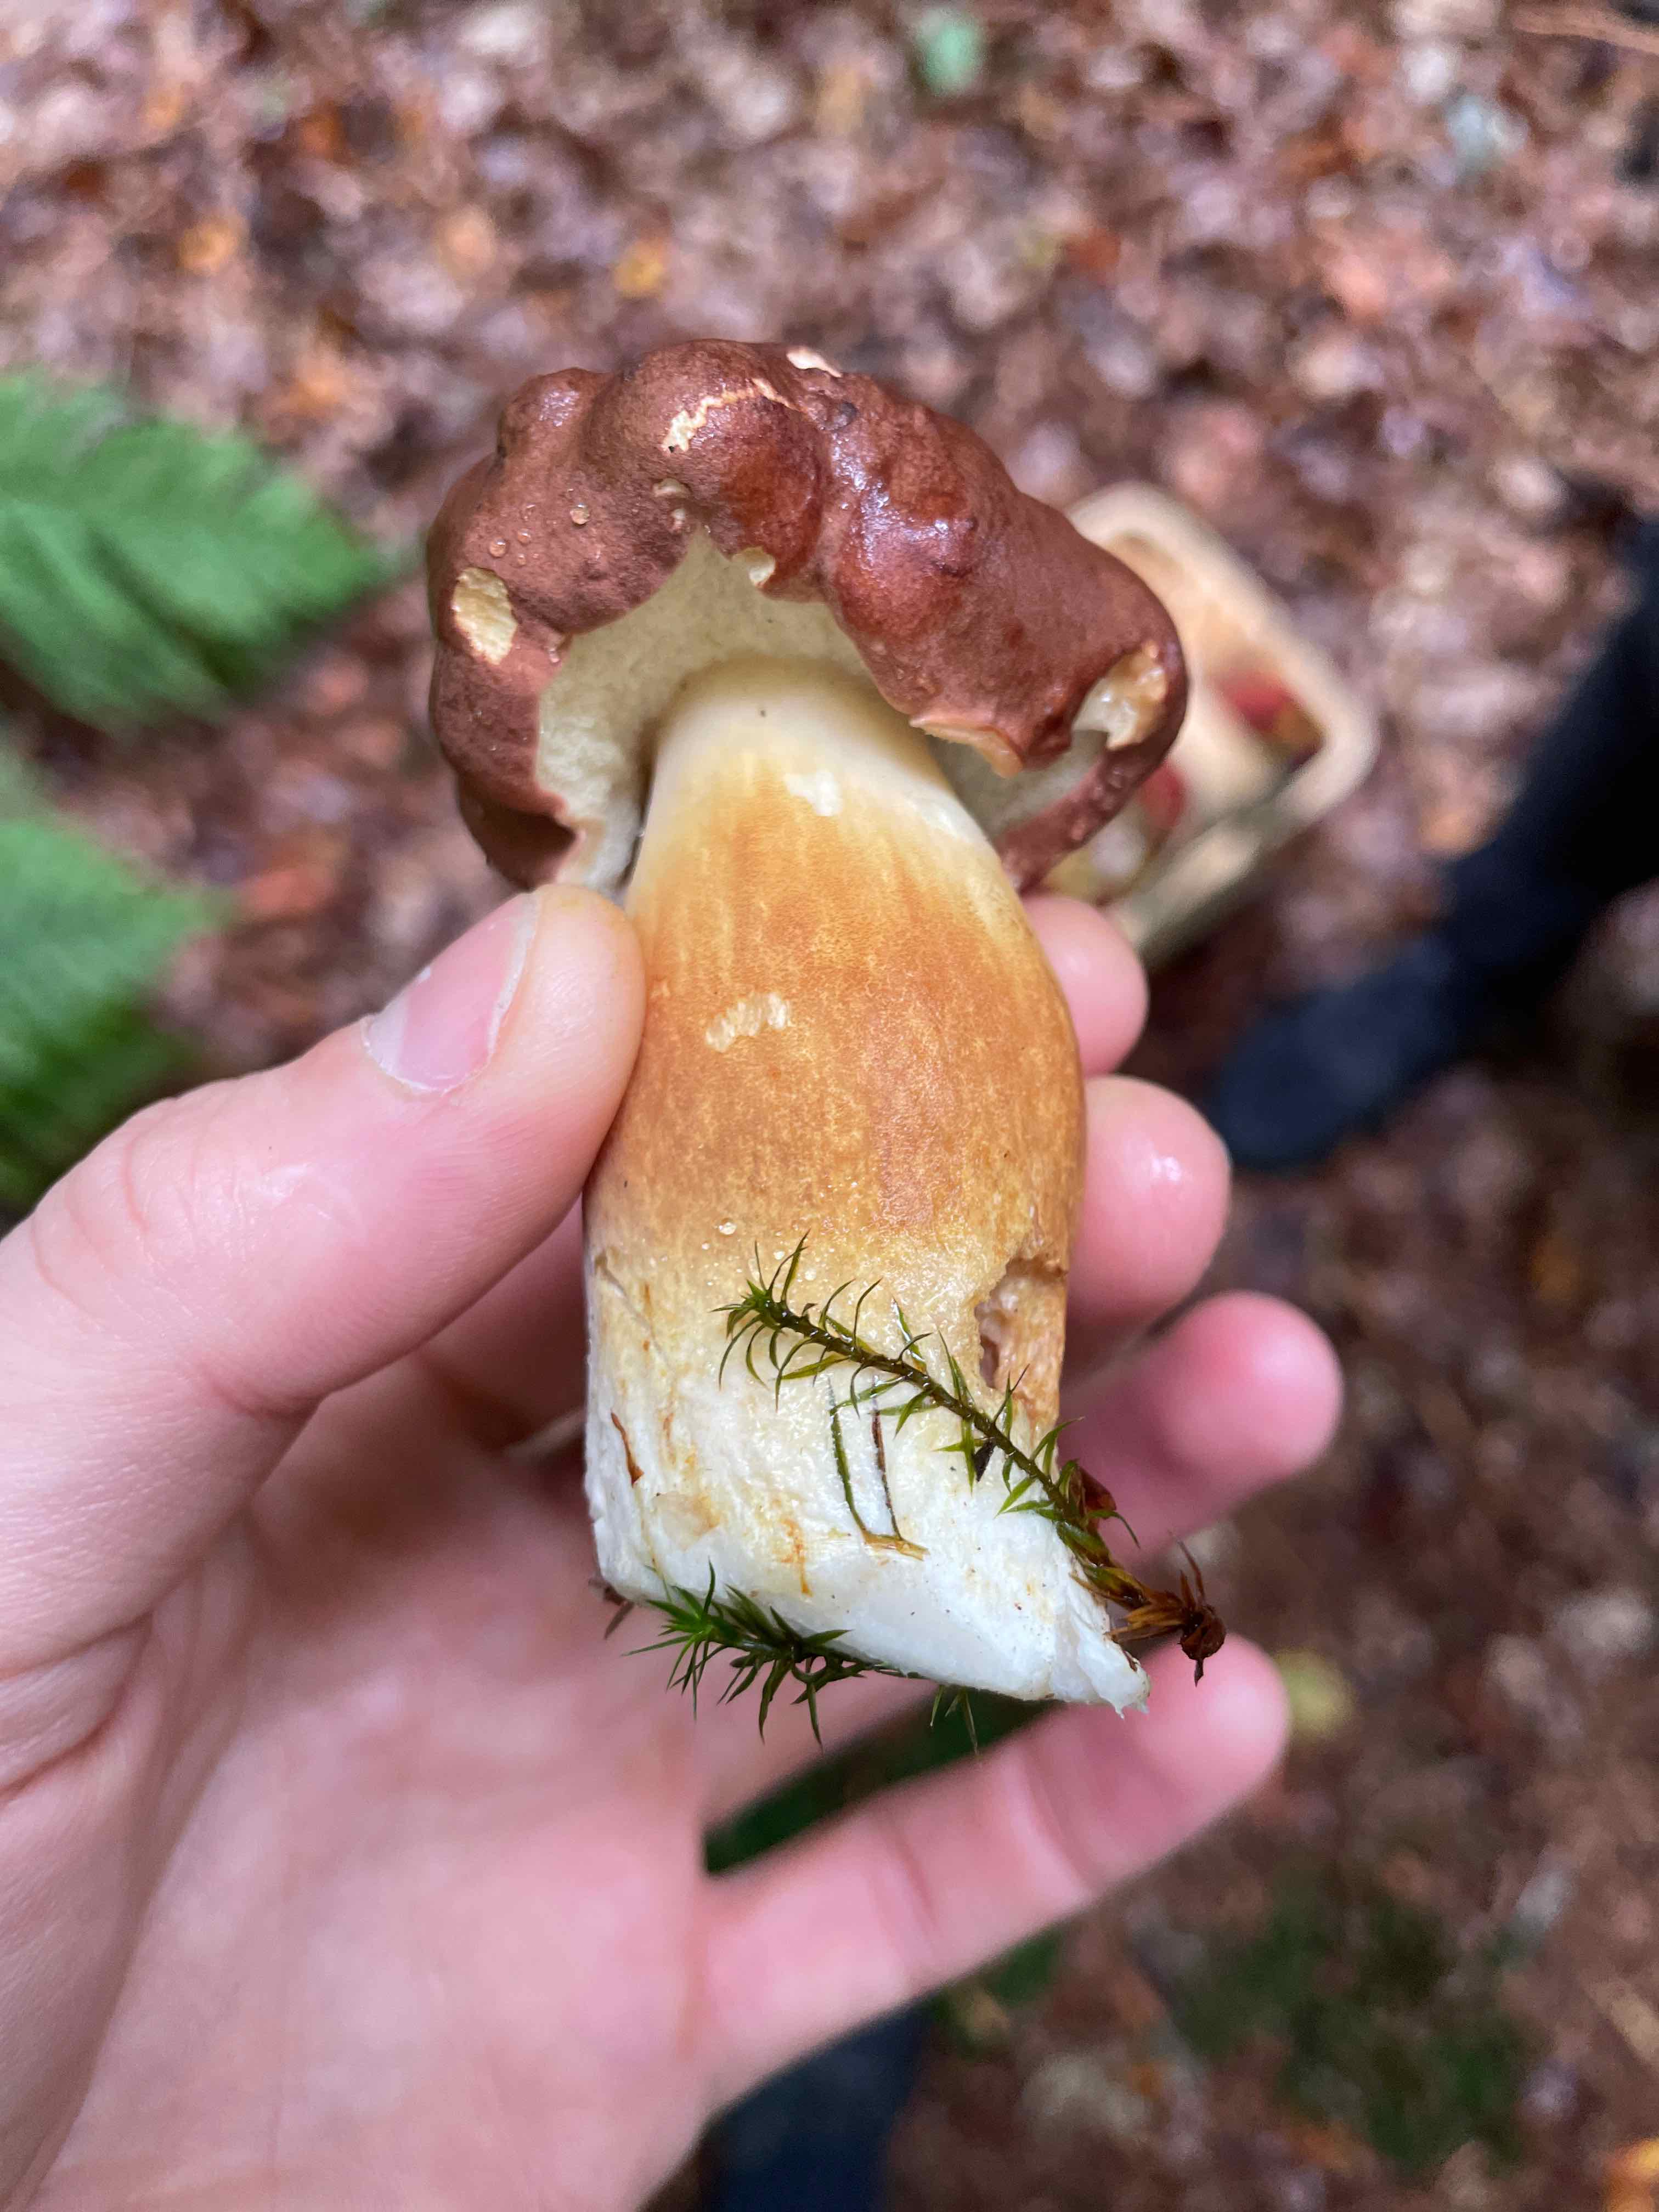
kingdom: Fungi
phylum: Basidiomycota
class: Agaricomycetes
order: Boletales
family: Boletaceae
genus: Imleria
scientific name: Imleria badia
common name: brunstokket rørhat
